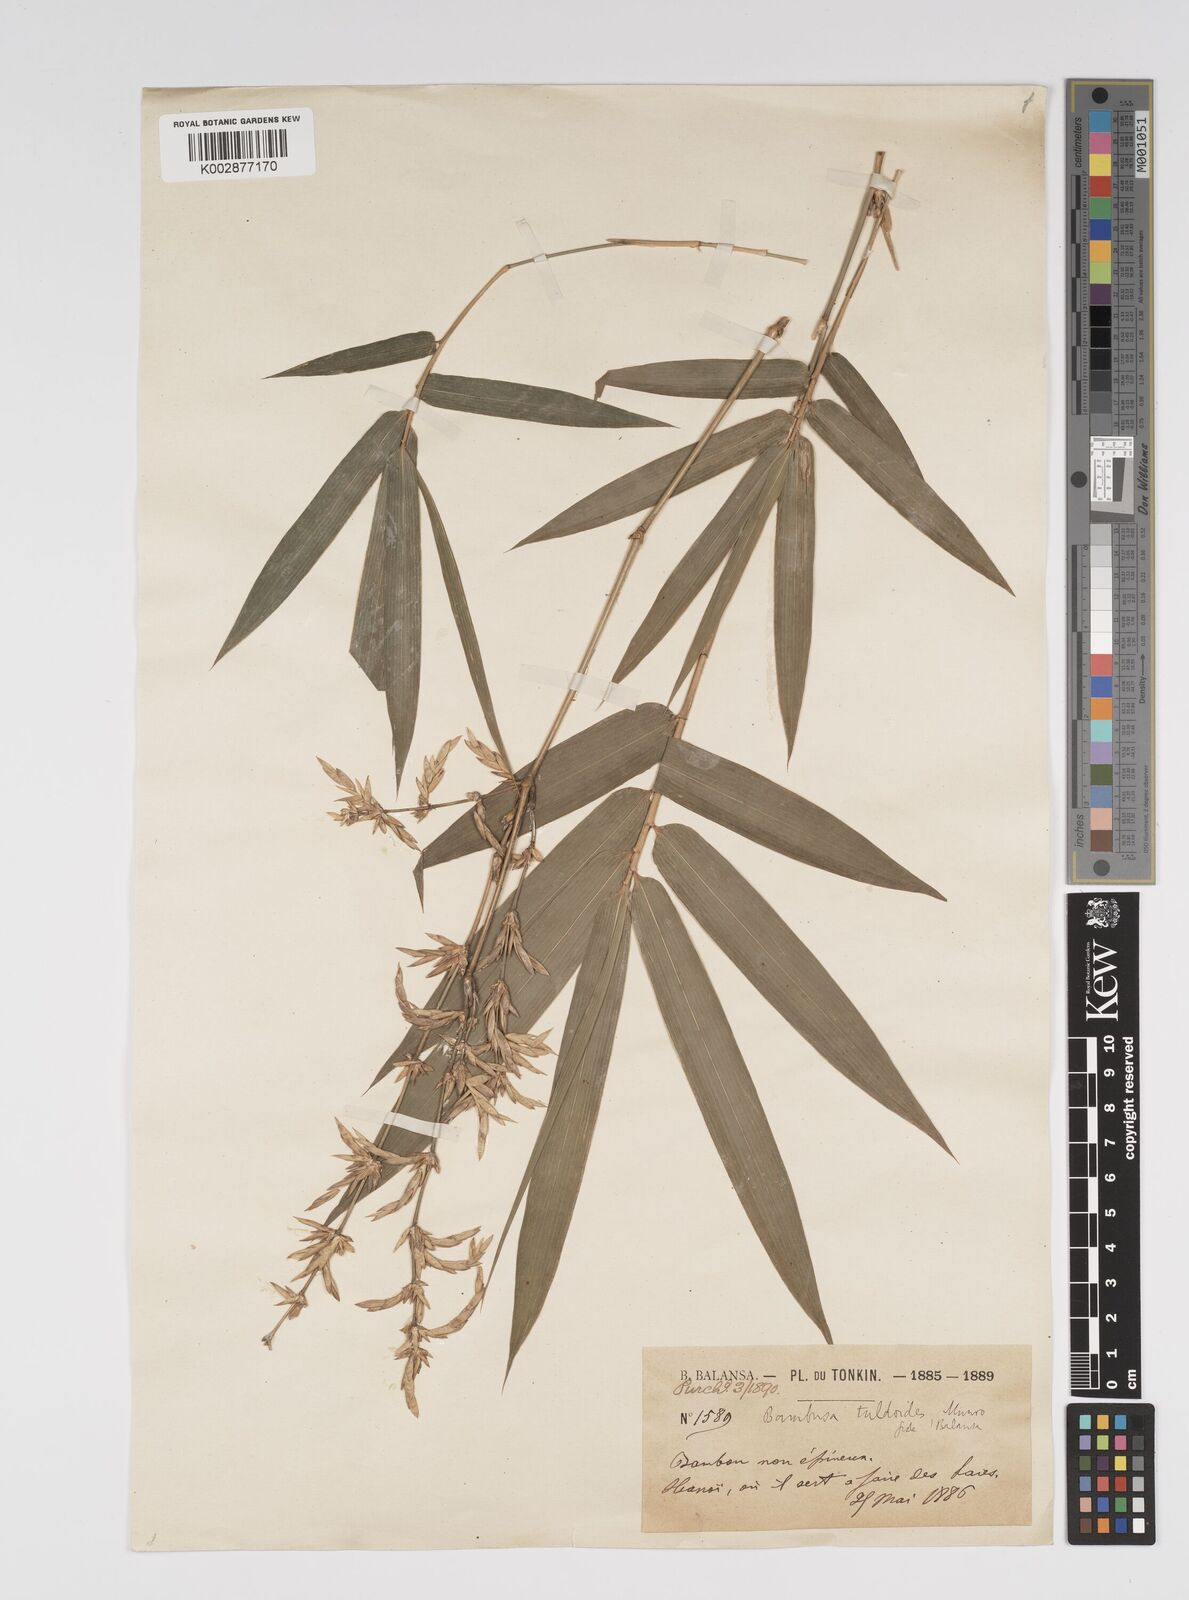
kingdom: Plantae
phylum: Tracheophyta
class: Liliopsida
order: Poales
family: Poaceae
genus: Bambusa
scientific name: Bambusa tuldoides
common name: Verdant bamboo
